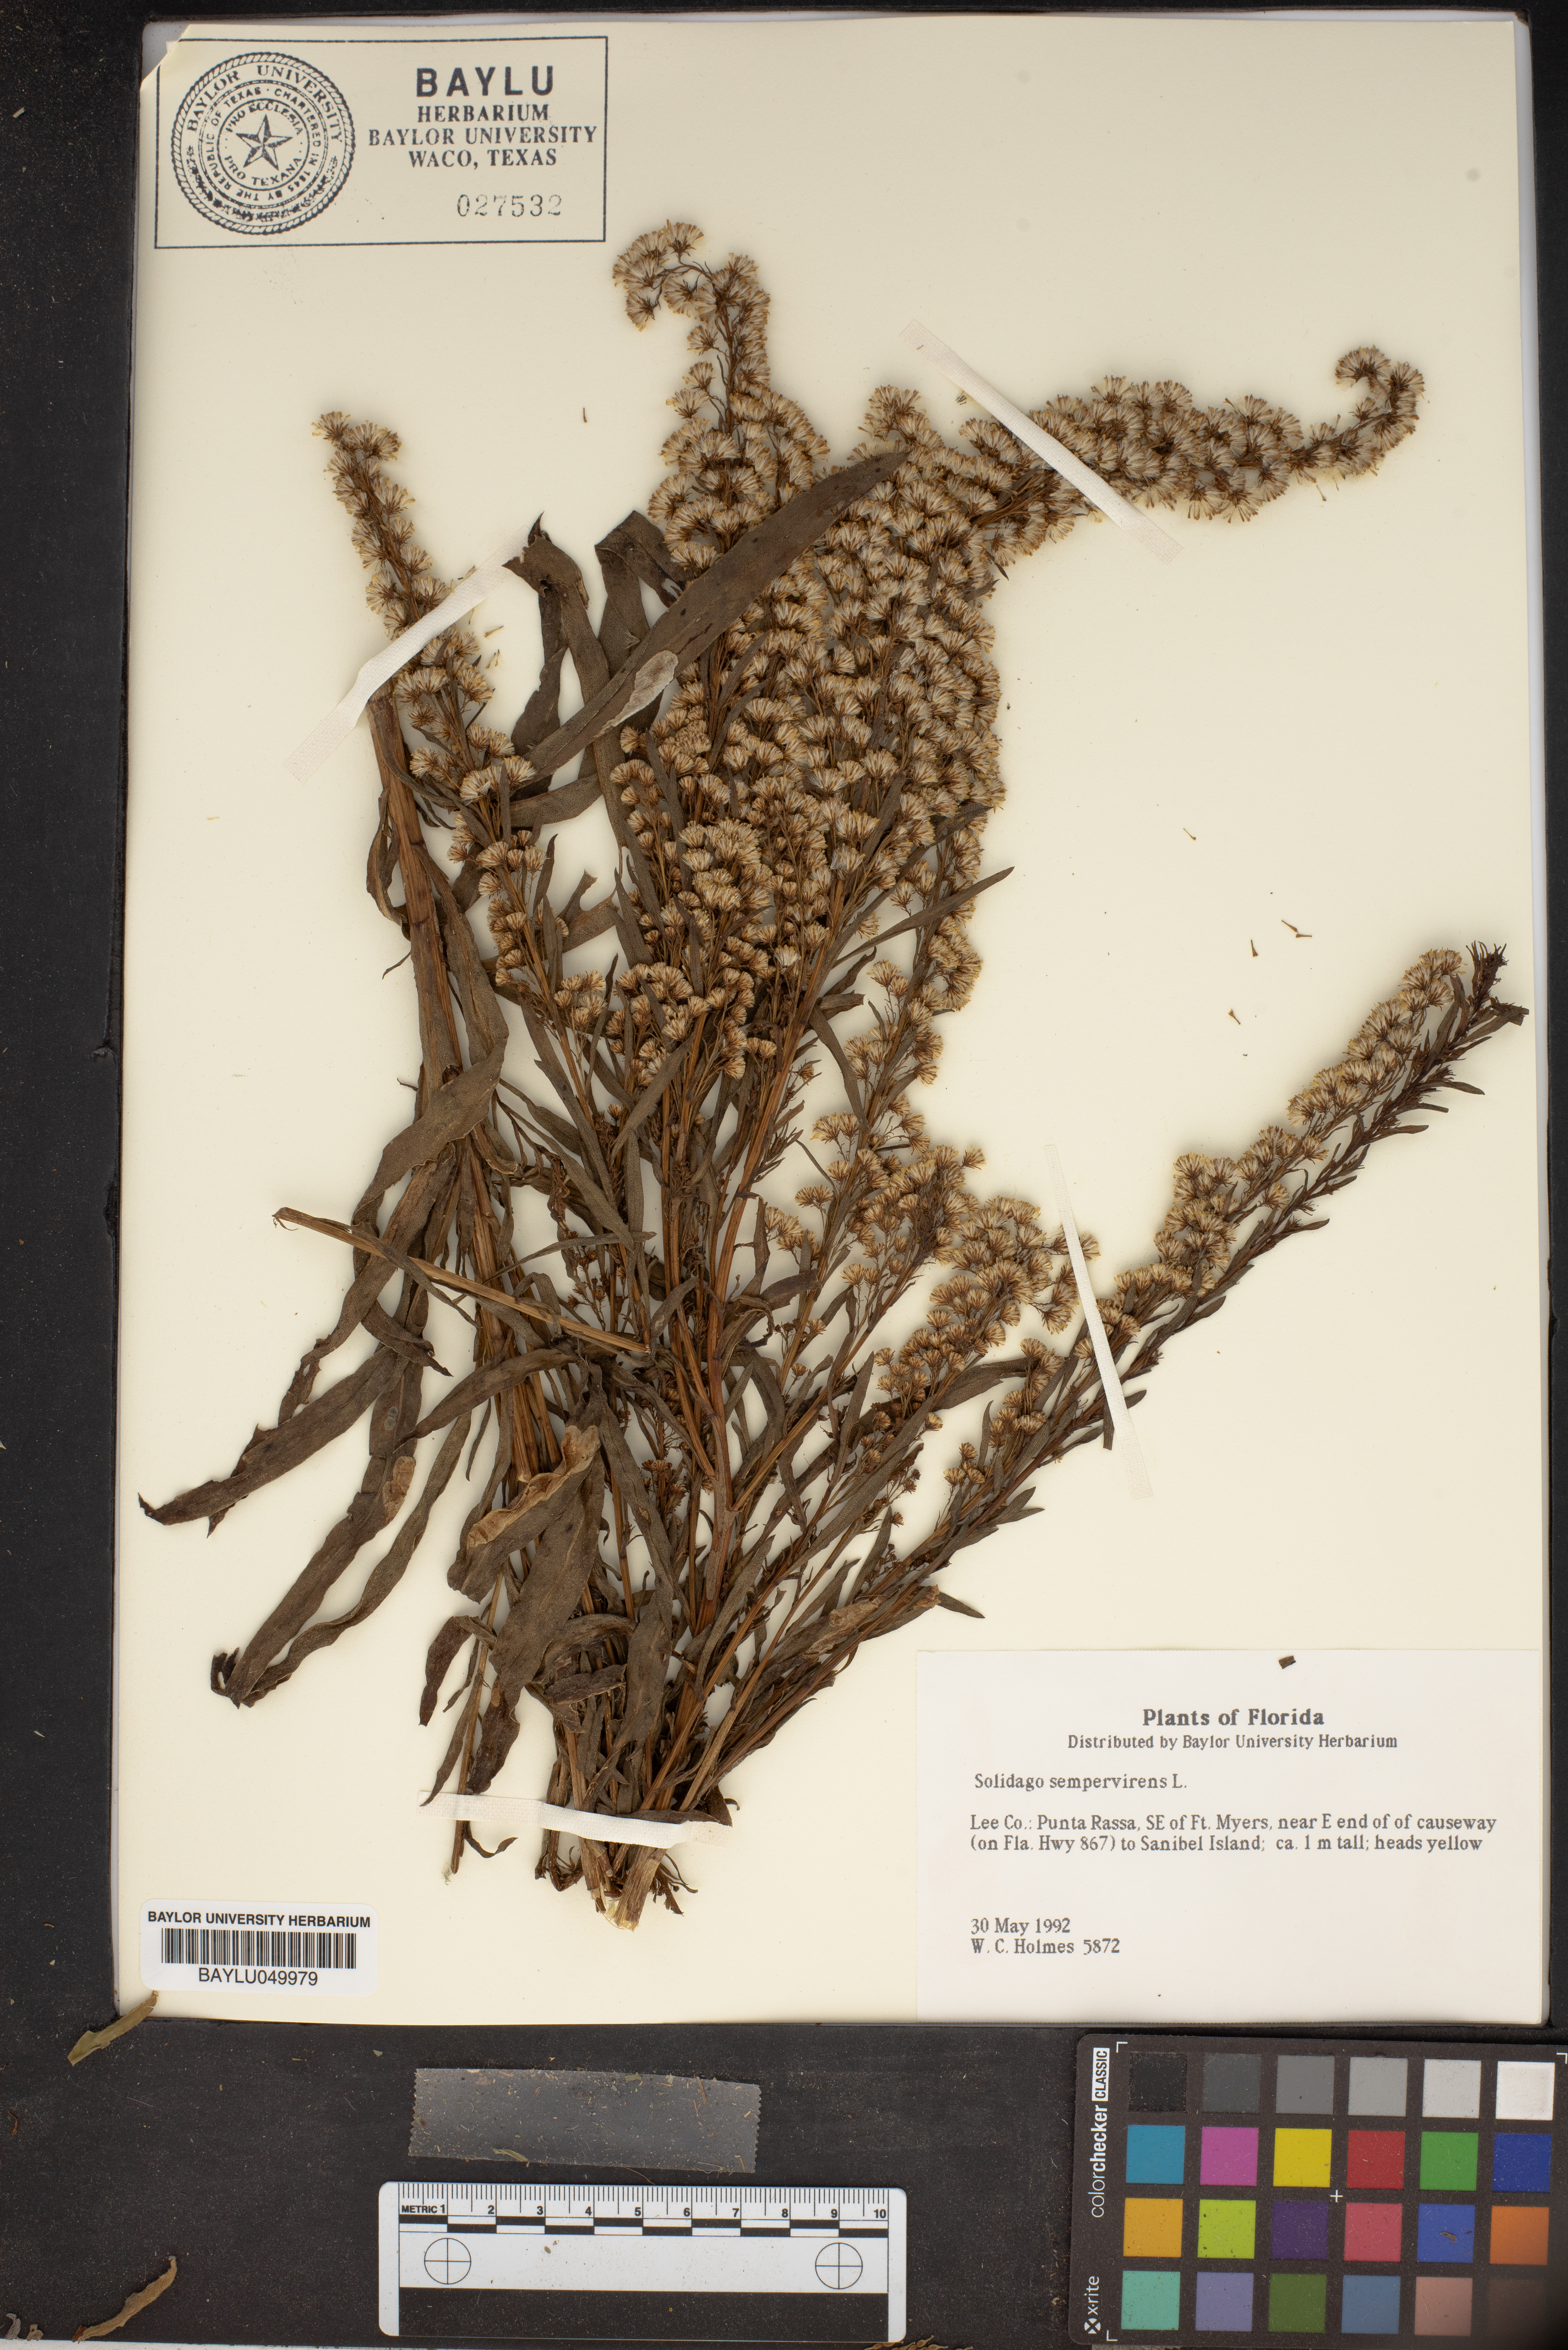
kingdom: Plantae
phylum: Tracheophyta
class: Magnoliopsida
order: Asterales
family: Asteraceae
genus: Solidago
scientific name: Solidago sempervirens
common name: Salt-marsh goldenrod
